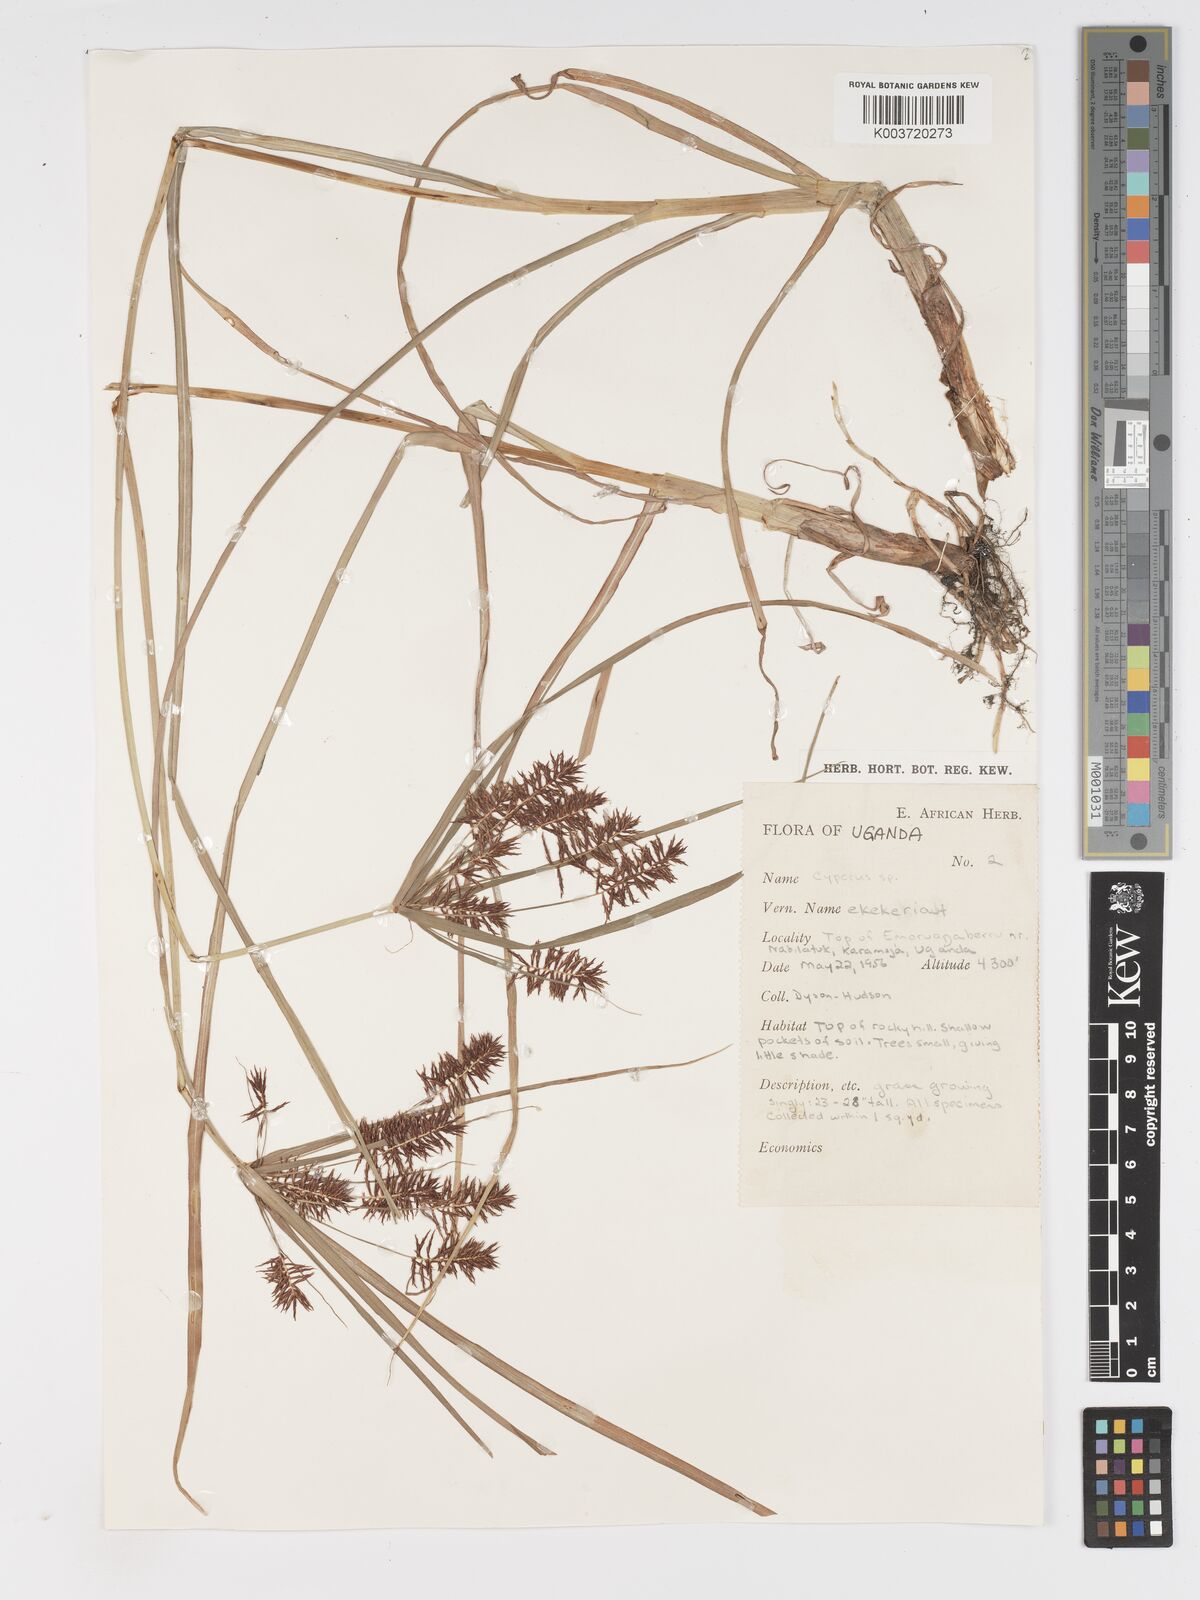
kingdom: Plantae
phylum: Tracheophyta
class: Liliopsida
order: Poales
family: Cyperaceae
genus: Cyperus
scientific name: Cyperus
